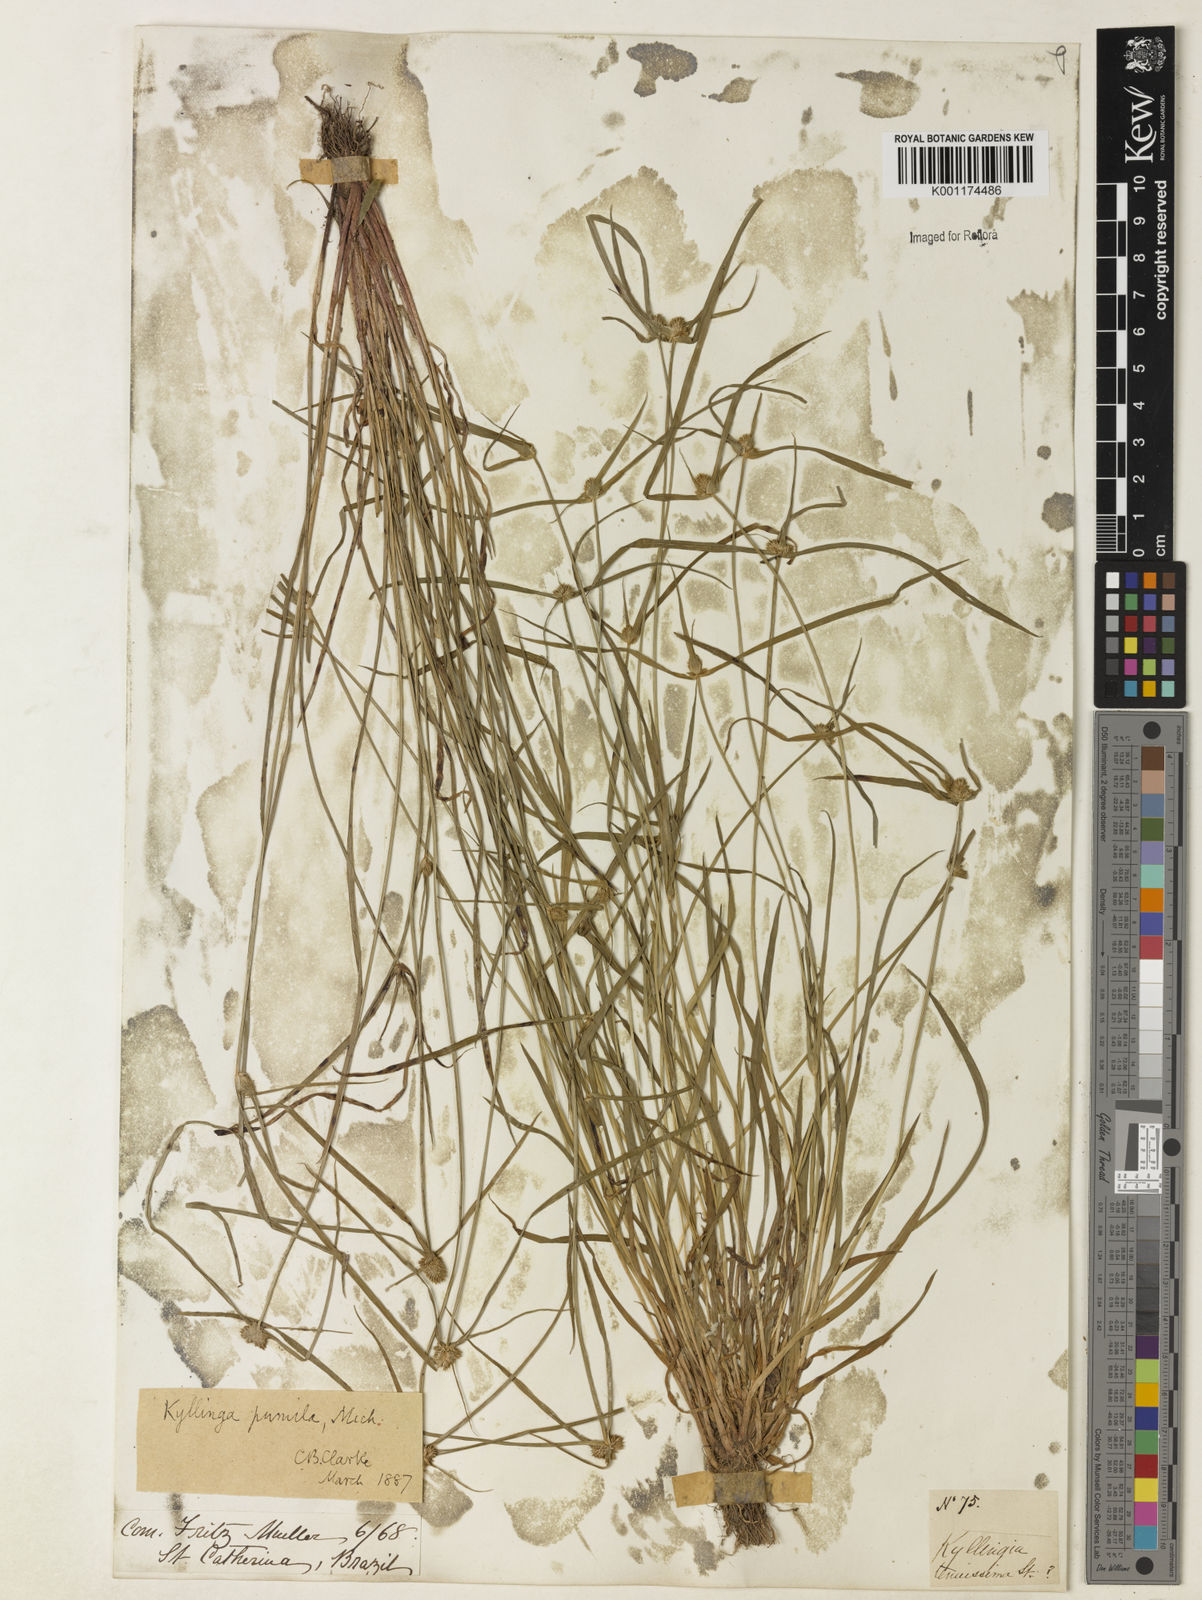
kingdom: Plantae
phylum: Tracheophyta
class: Liliopsida
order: Poales
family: Cyperaceae
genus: Cyperus
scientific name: Cyperus
